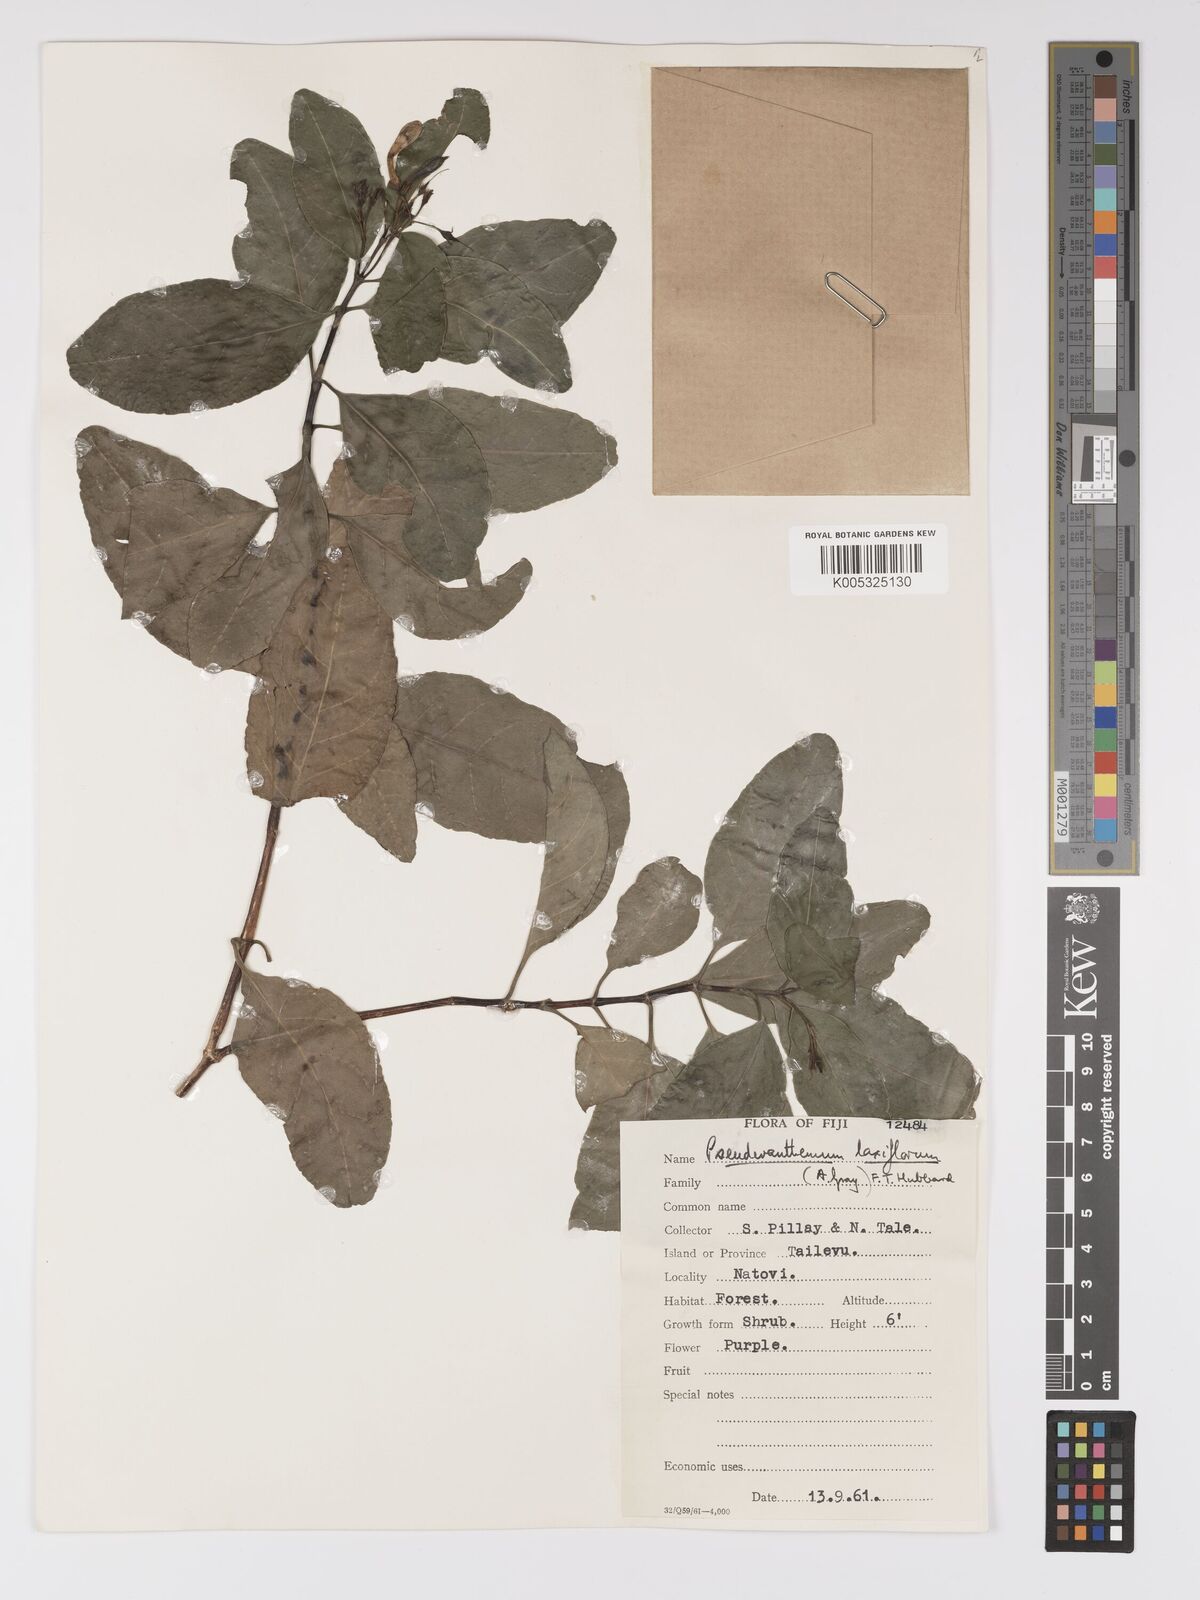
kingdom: Plantae
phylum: Tracheophyta
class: Magnoliopsida
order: Lamiales
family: Acanthaceae
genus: Pseuderanthemum
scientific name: Pseuderanthemum laxiflorum
